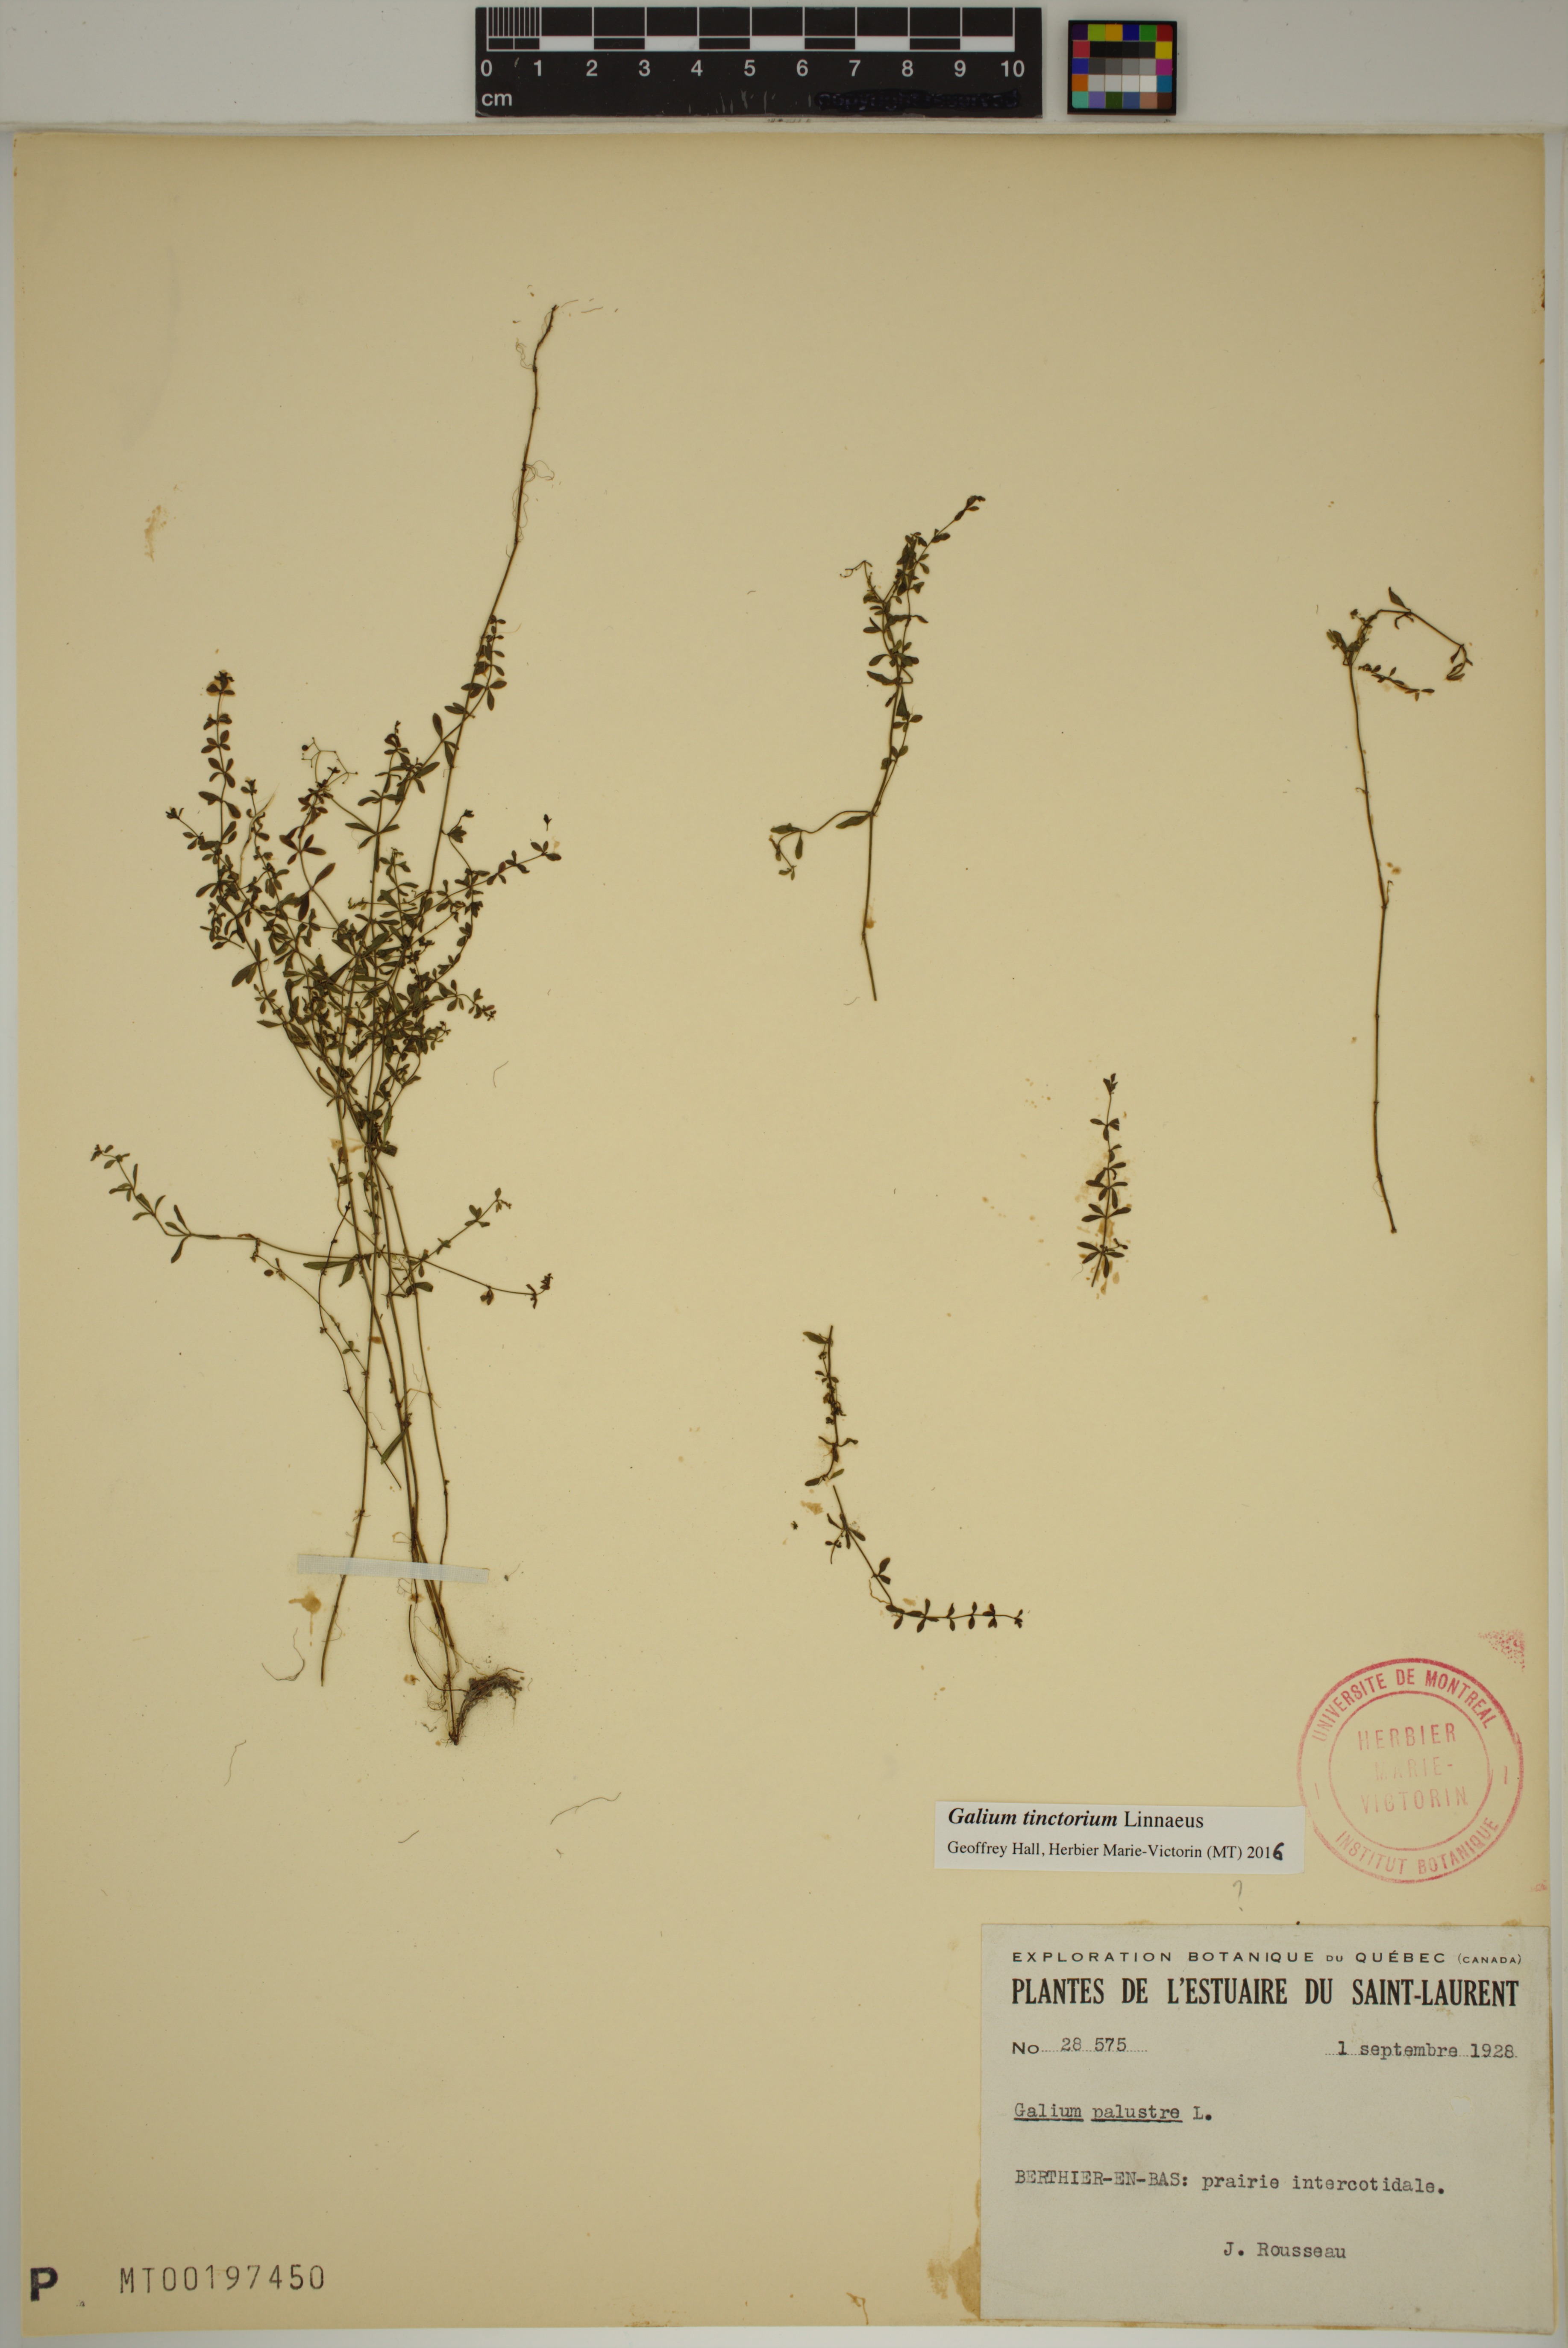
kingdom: Plantae
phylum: Tracheophyta
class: Magnoliopsida
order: Gentianales
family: Rubiaceae
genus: Galium
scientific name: Galium tinctorium
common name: Bedstraw
